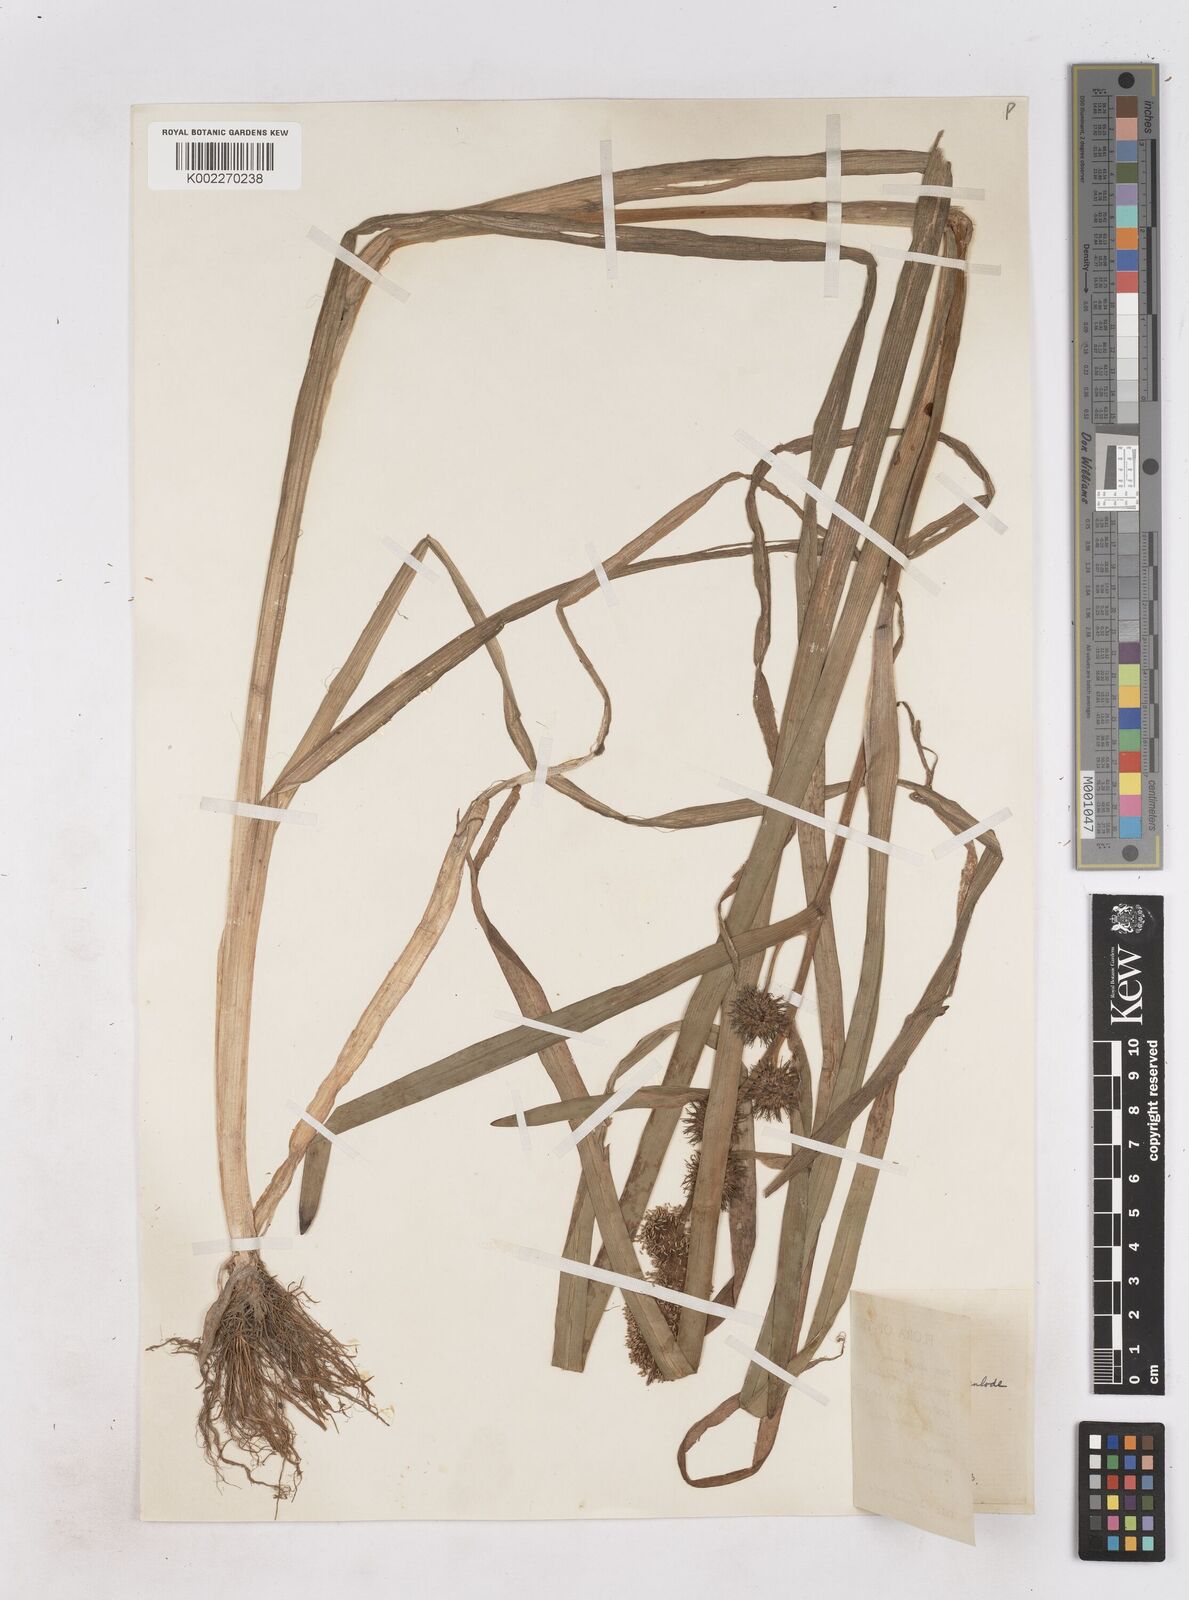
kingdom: Plantae
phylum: Tracheophyta
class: Liliopsida
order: Poales
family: Typhaceae
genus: Sparganium
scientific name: Sparganium emersum
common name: Unbranched bur-reed
